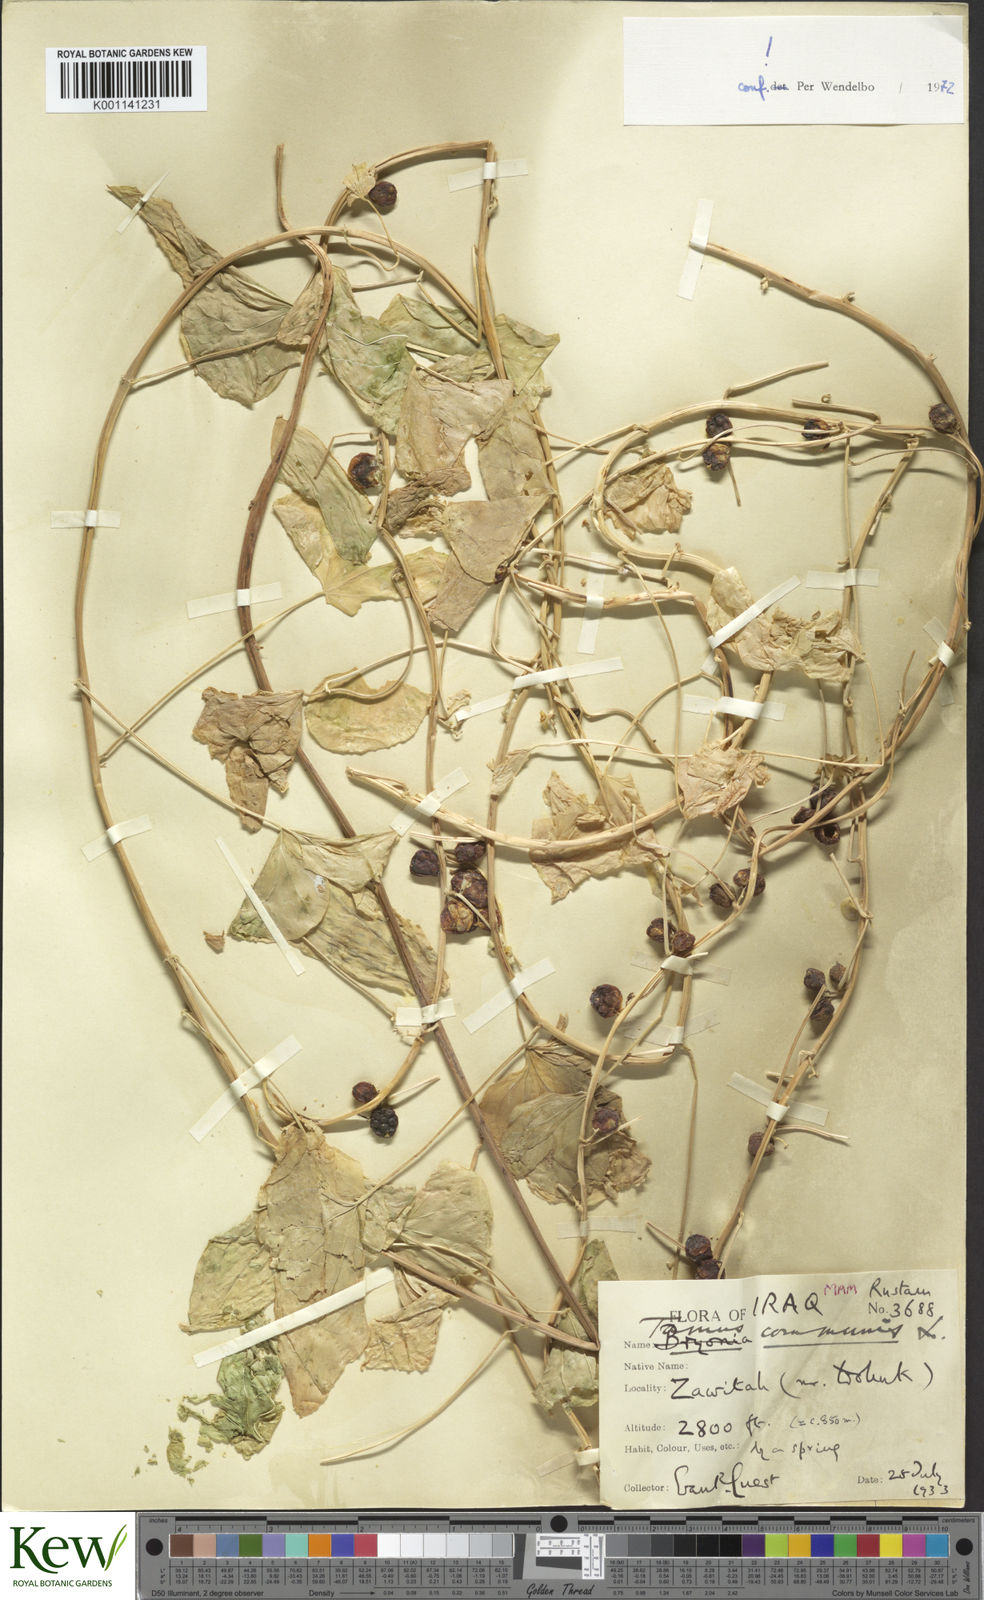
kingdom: Plantae
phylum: Tracheophyta
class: Liliopsida
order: Dioscoreales
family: Dioscoreaceae
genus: Dioscorea
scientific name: Dioscorea communis
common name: Black-bindweed
